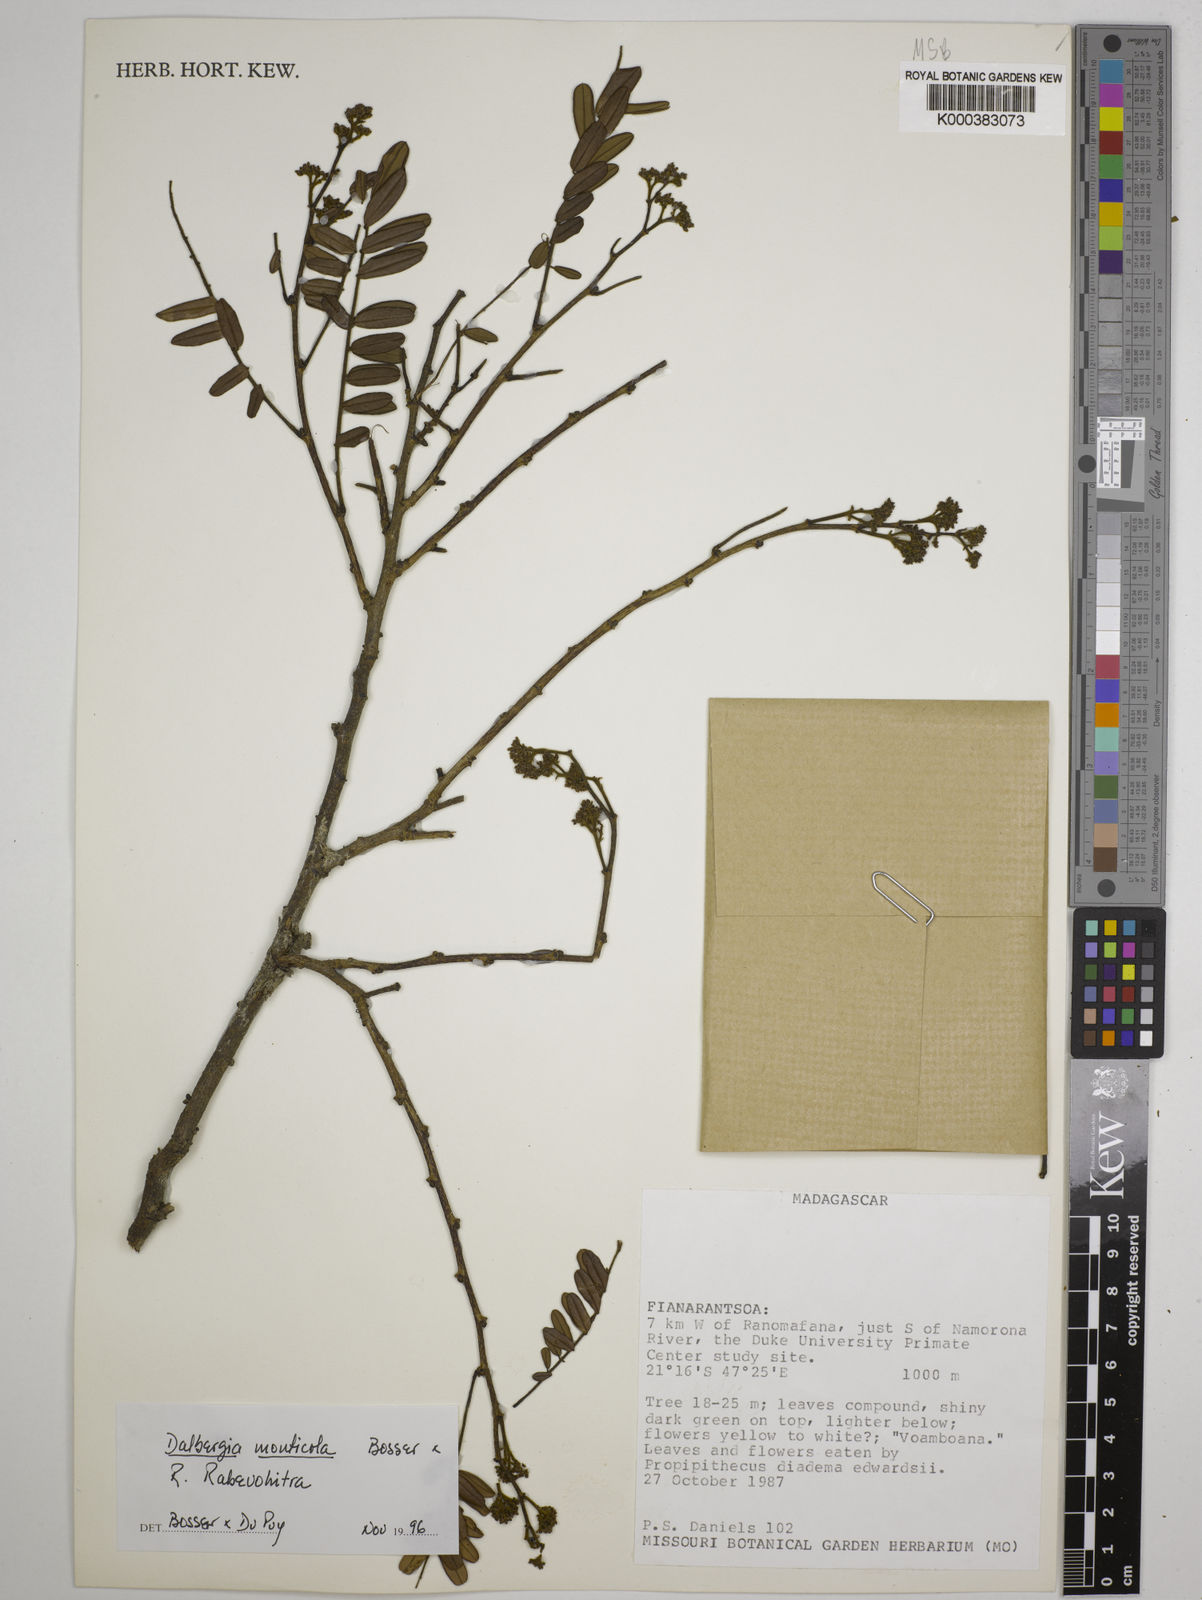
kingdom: Plantae
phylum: Tracheophyta
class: Magnoliopsida
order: Fabales
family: Fabaceae
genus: Dalbergia
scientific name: Dalbergia monticola
